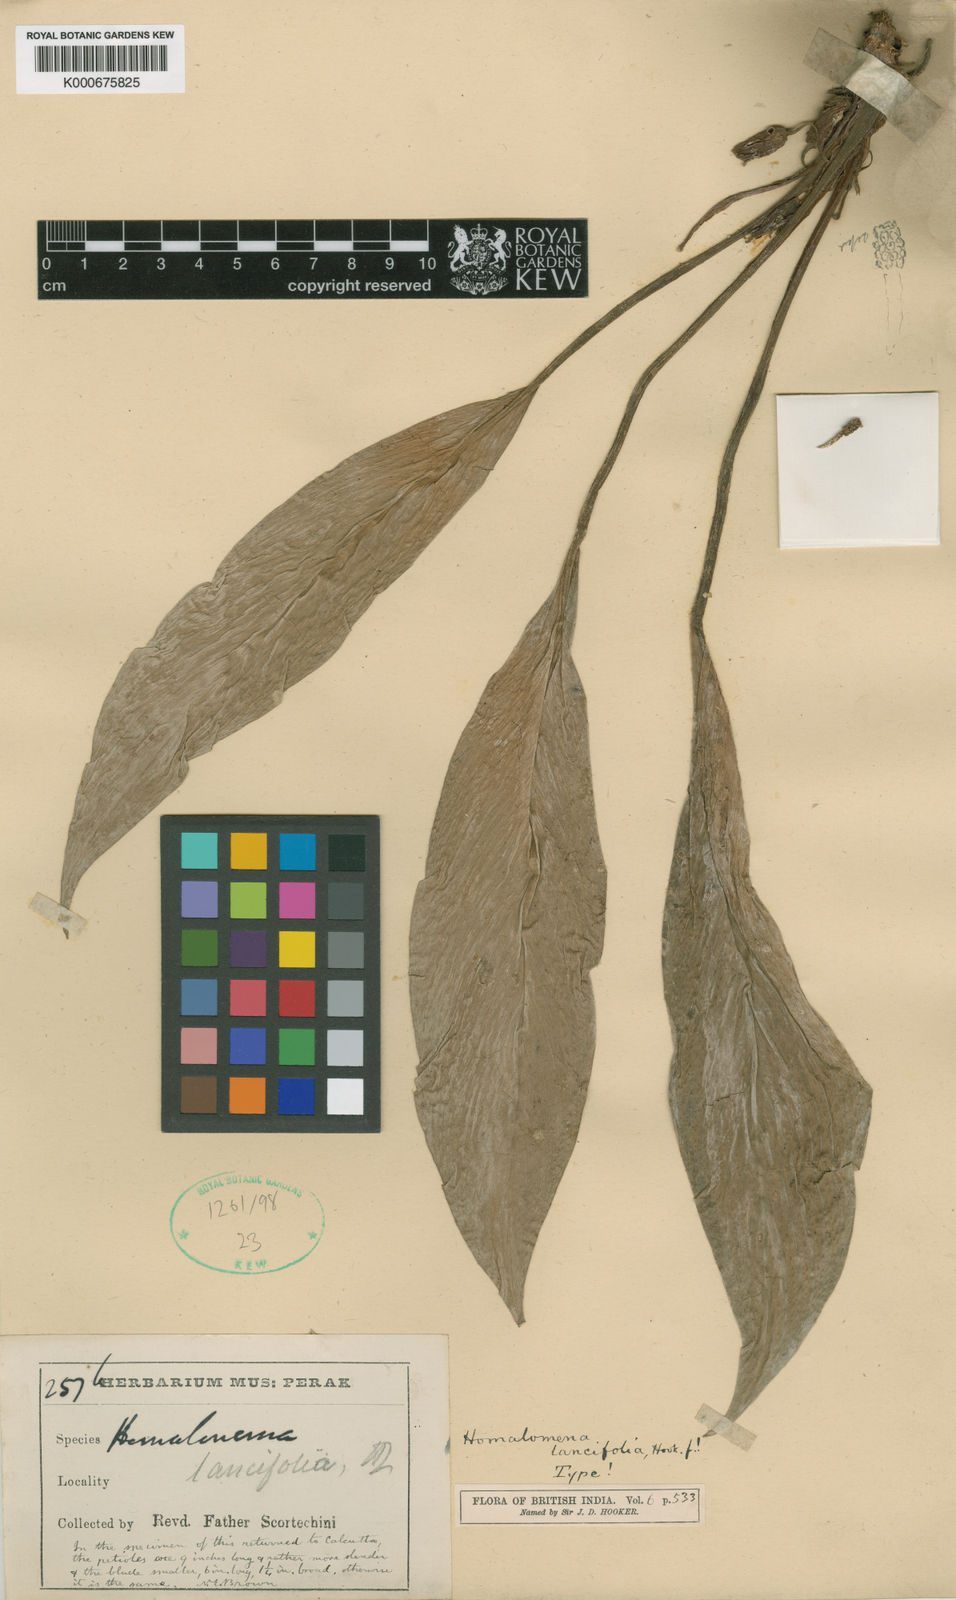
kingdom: Plantae
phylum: Tracheophyta
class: Liliopsida
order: Alismatales
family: Araceae
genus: Homalomena
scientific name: Homalomena lancifolia
